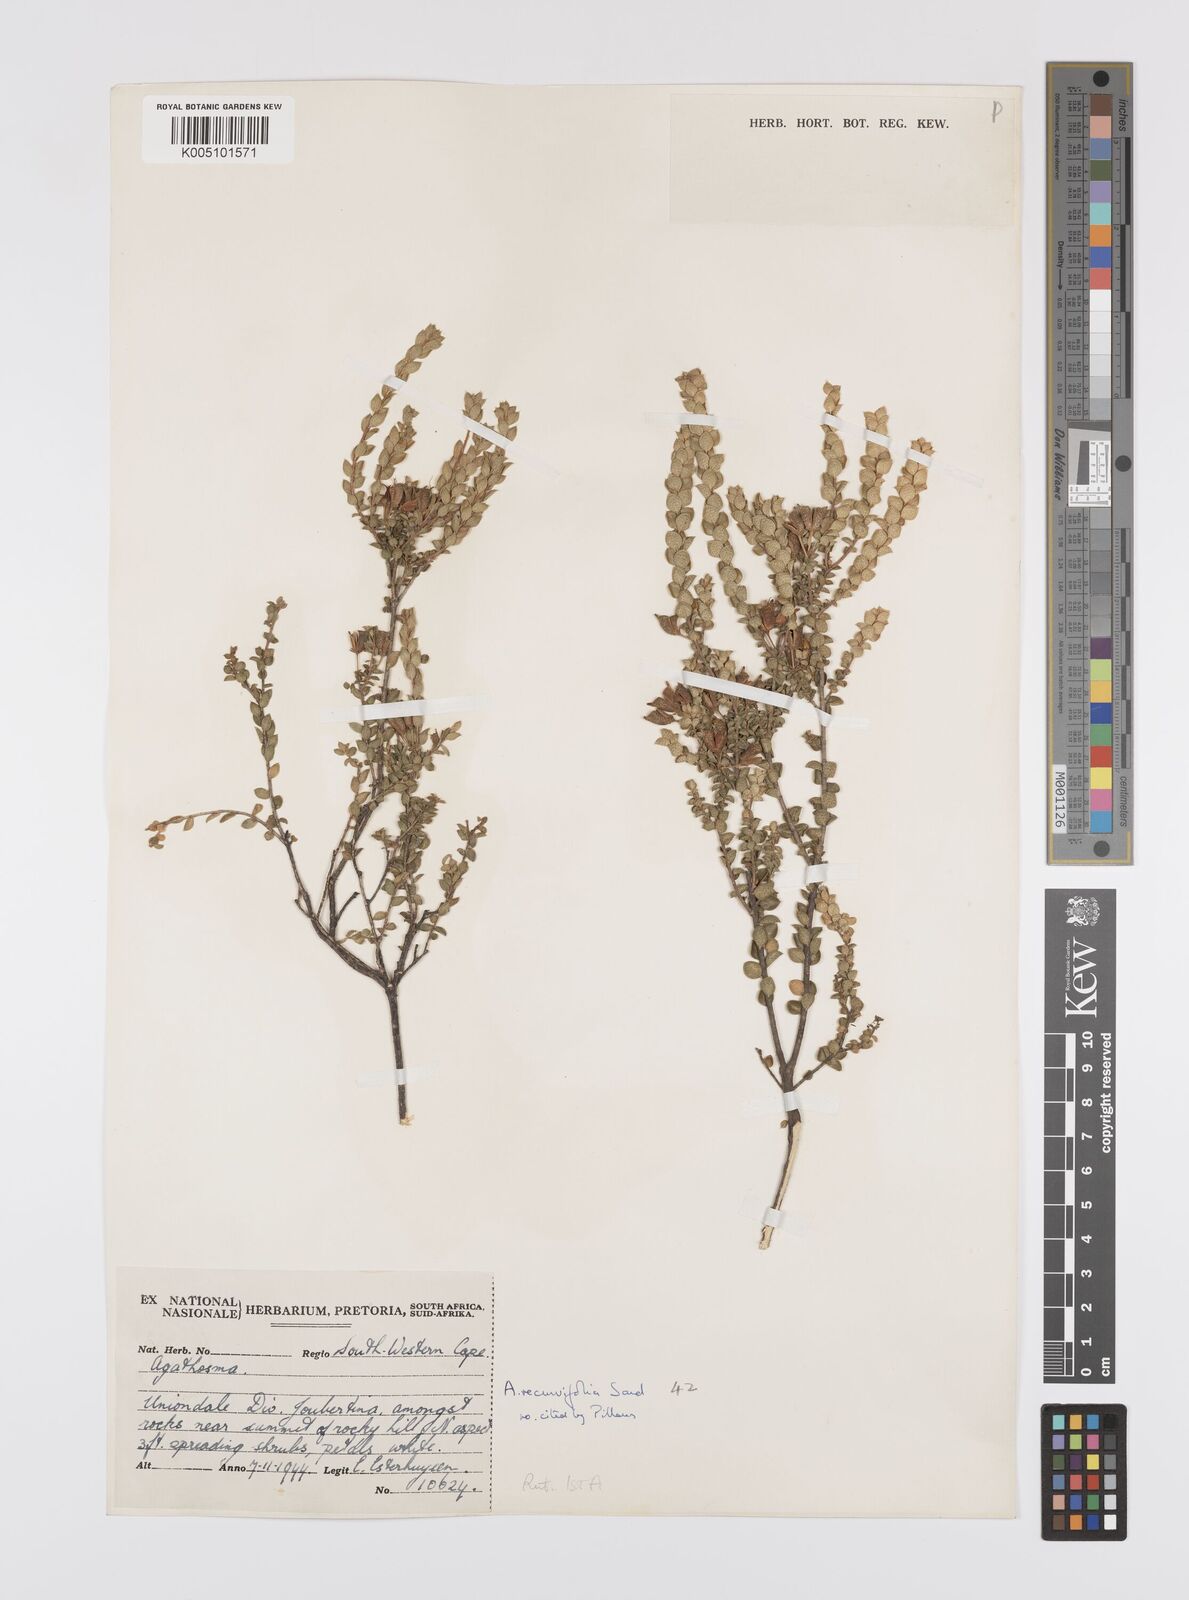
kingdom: Plantae
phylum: Tracheophyta
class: Magnoliopsida
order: Sapindales
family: Rutaceae
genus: Agathosma
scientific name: Agathosma recurvifolia
